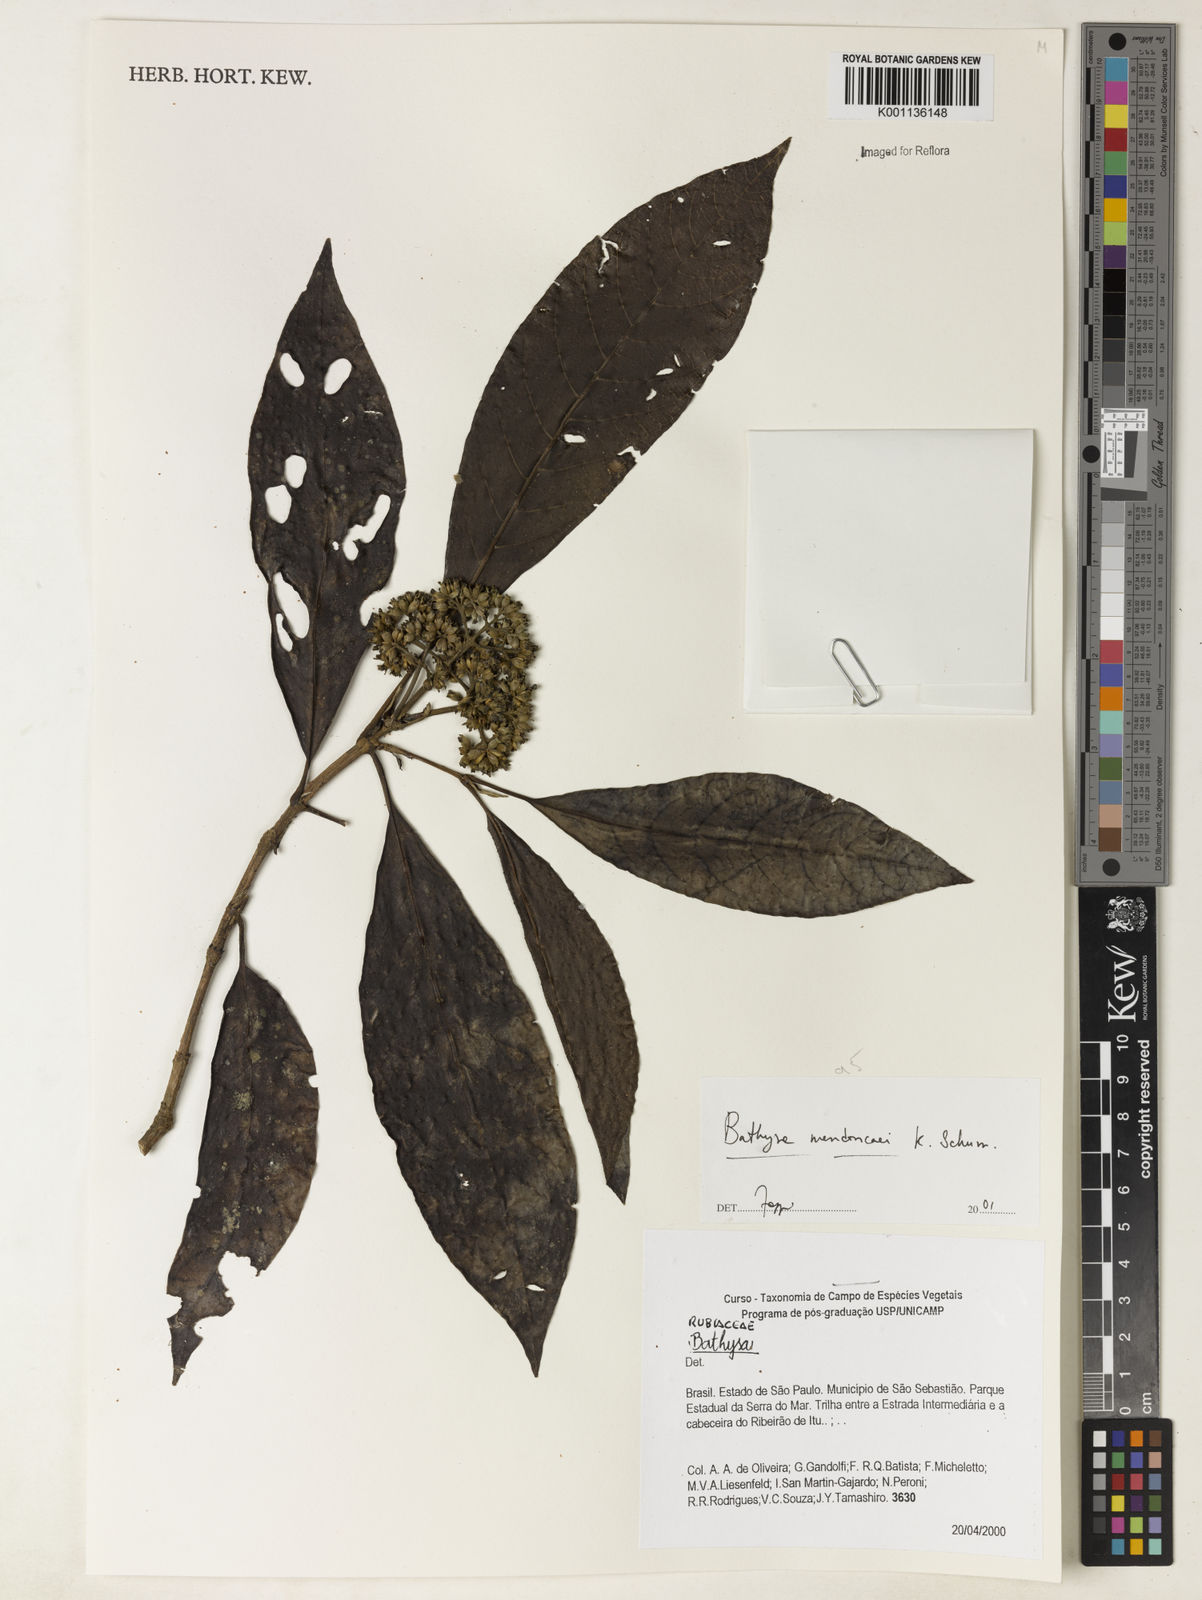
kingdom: Plantae
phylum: Tracheophyta
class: Magnoliopsida
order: Gentianales
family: Rubiaceae
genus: Bathysa
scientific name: Bathysa
